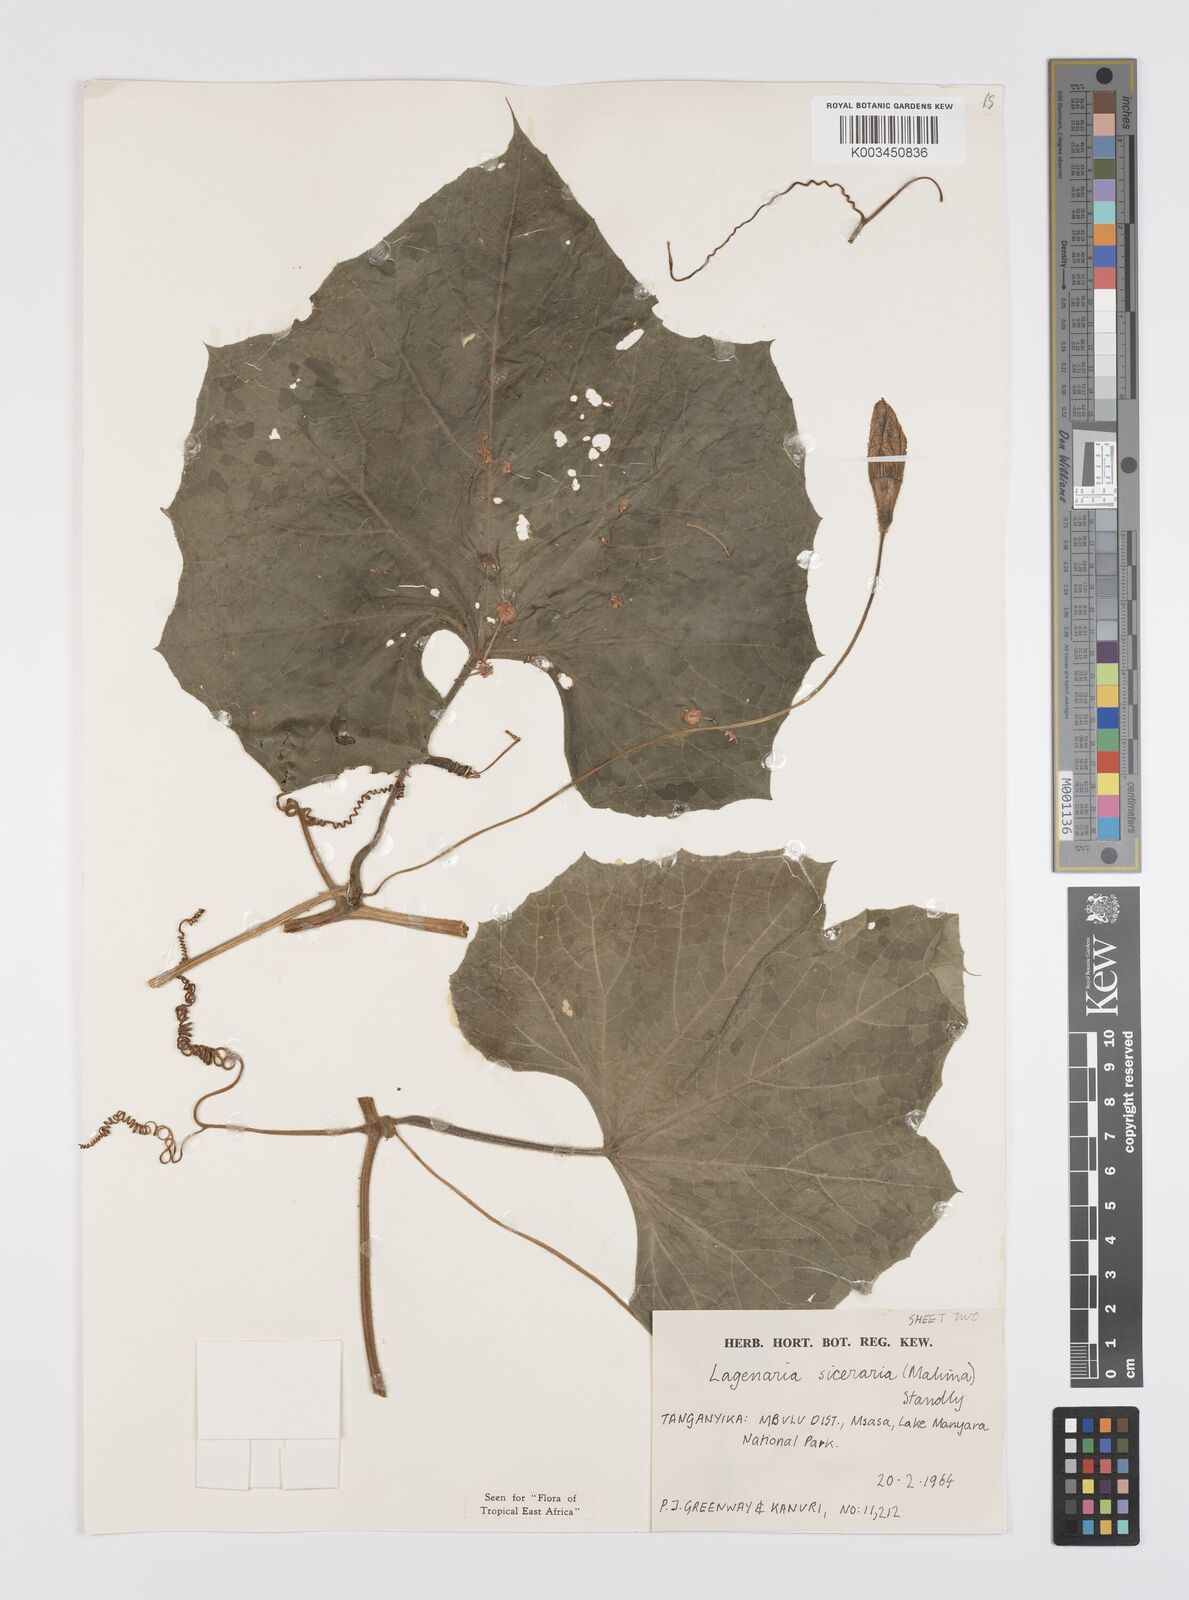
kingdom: Plantae
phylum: Tracheophyta
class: Magnoliopsida
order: Cucurbitales
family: Cucurbitaceae
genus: Lagenaria
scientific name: Lagenaria siceraria
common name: Bottle gourd
